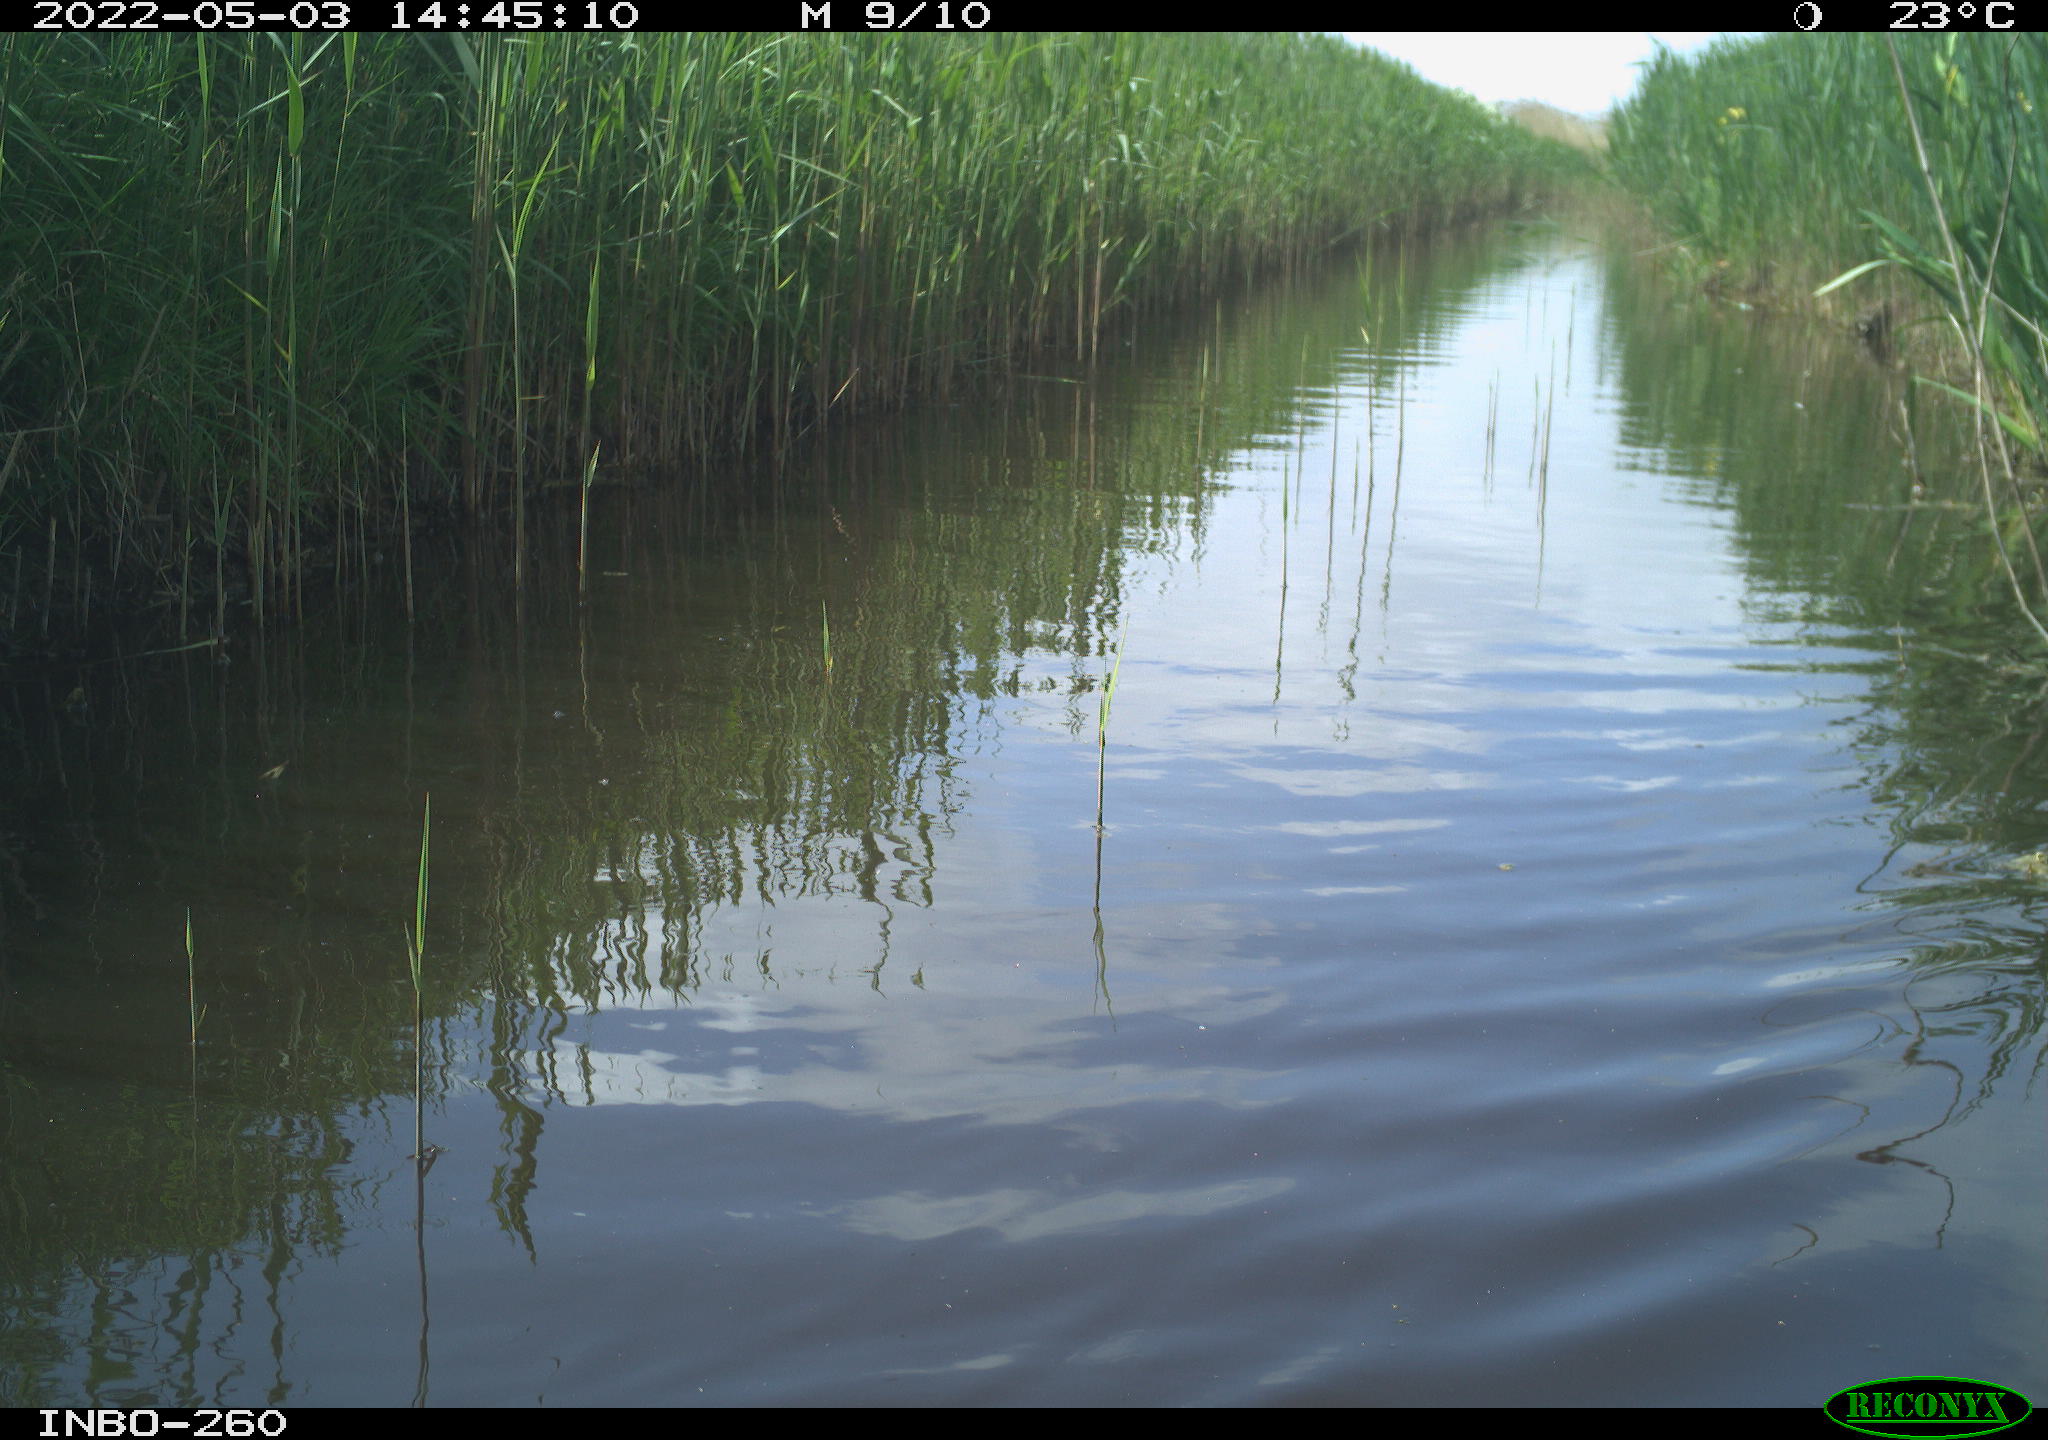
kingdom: Animalia
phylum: Chordata
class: Aves
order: Gruiformes
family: Rallidae
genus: Fulica
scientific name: Fulica atra
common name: Eurasian coot
